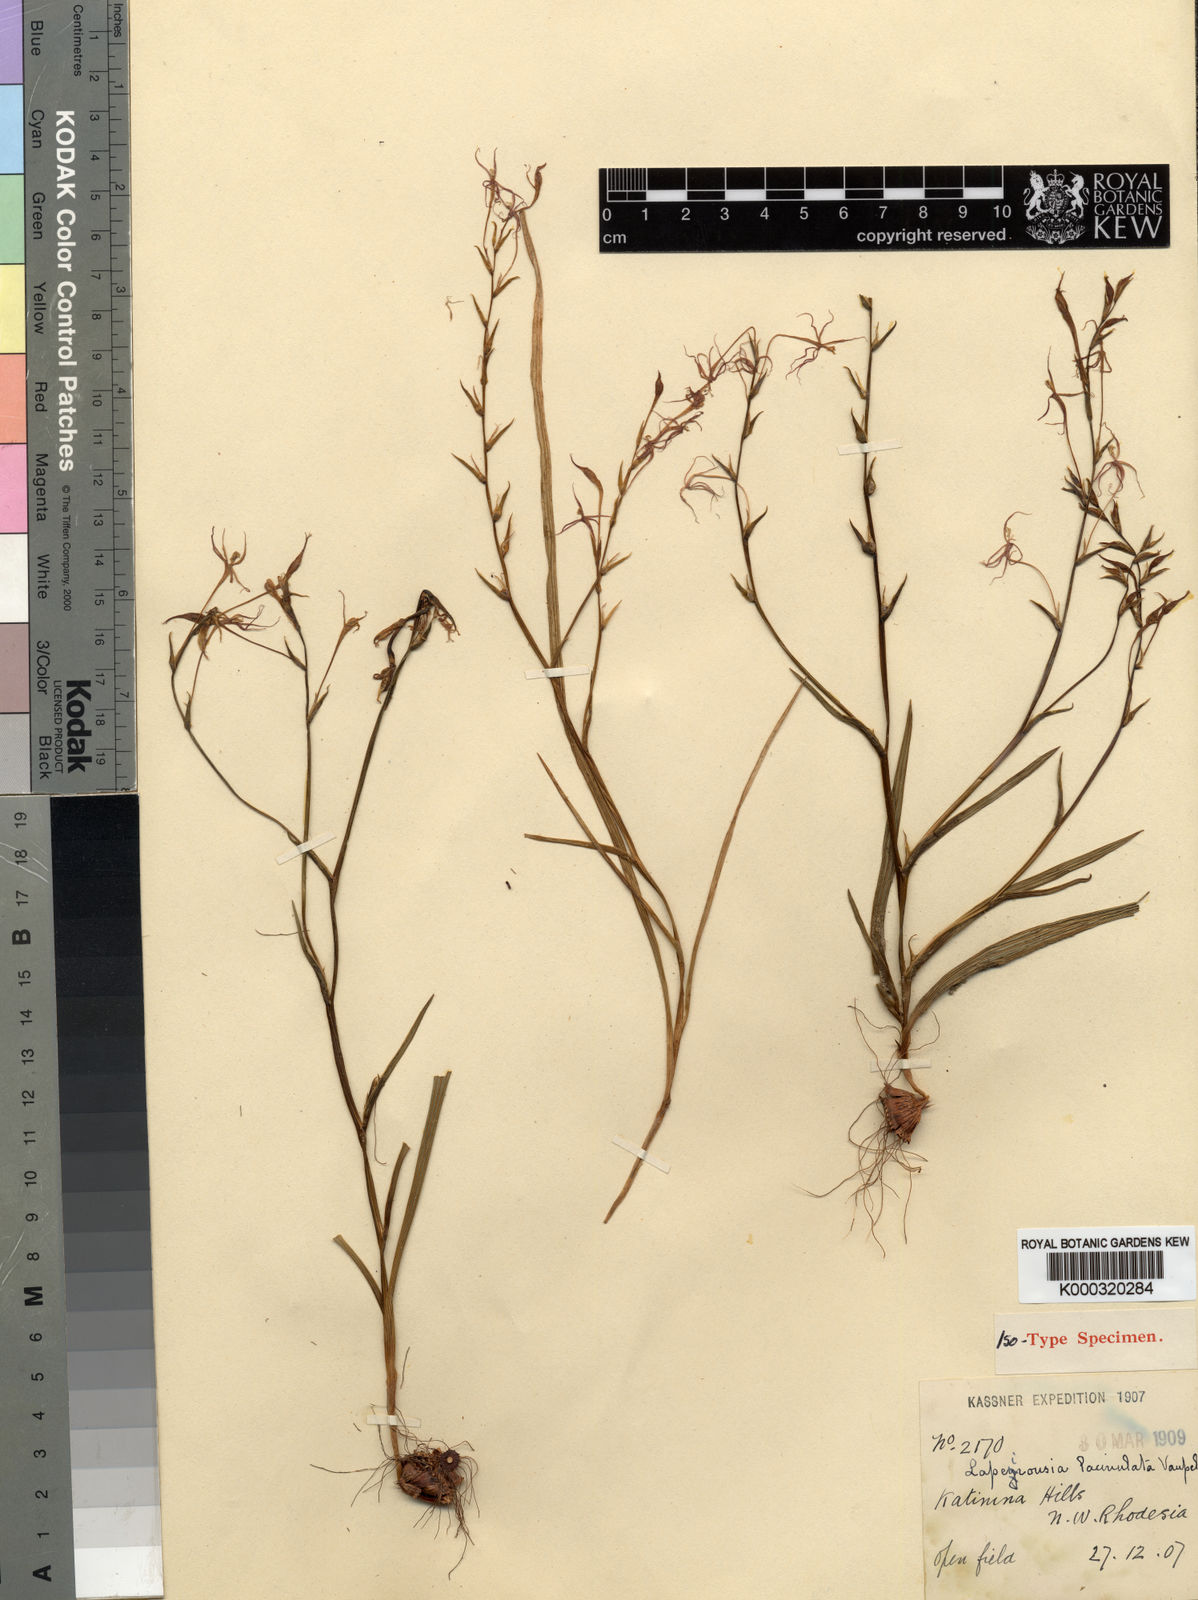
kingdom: Plantae
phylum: Tracheophyta
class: Liliopsida
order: Asparagales
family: Iridaceae
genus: Lapeirousia
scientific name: Lapeirousia caudata
